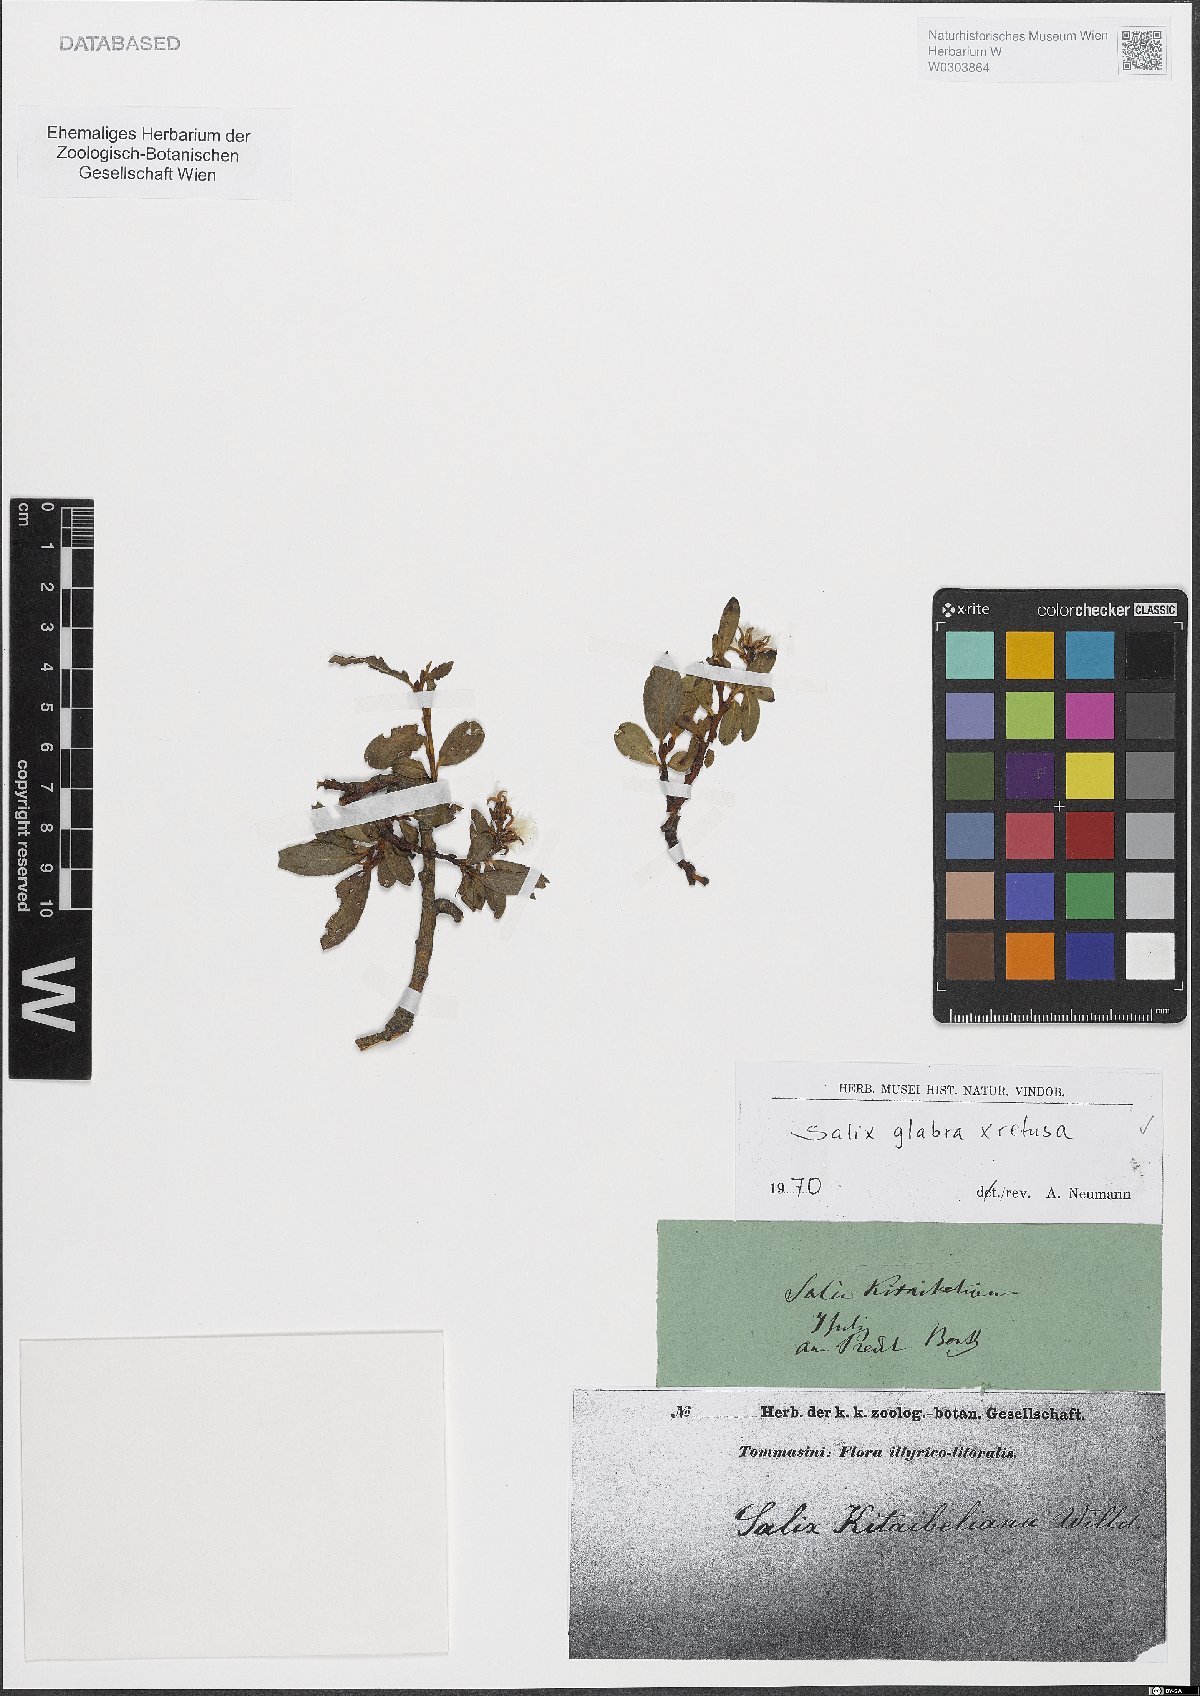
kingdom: Plantae
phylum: Tracheophyta
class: Magnoliopsida
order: Malpighiales
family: Salicaceae
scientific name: Salicaceae
